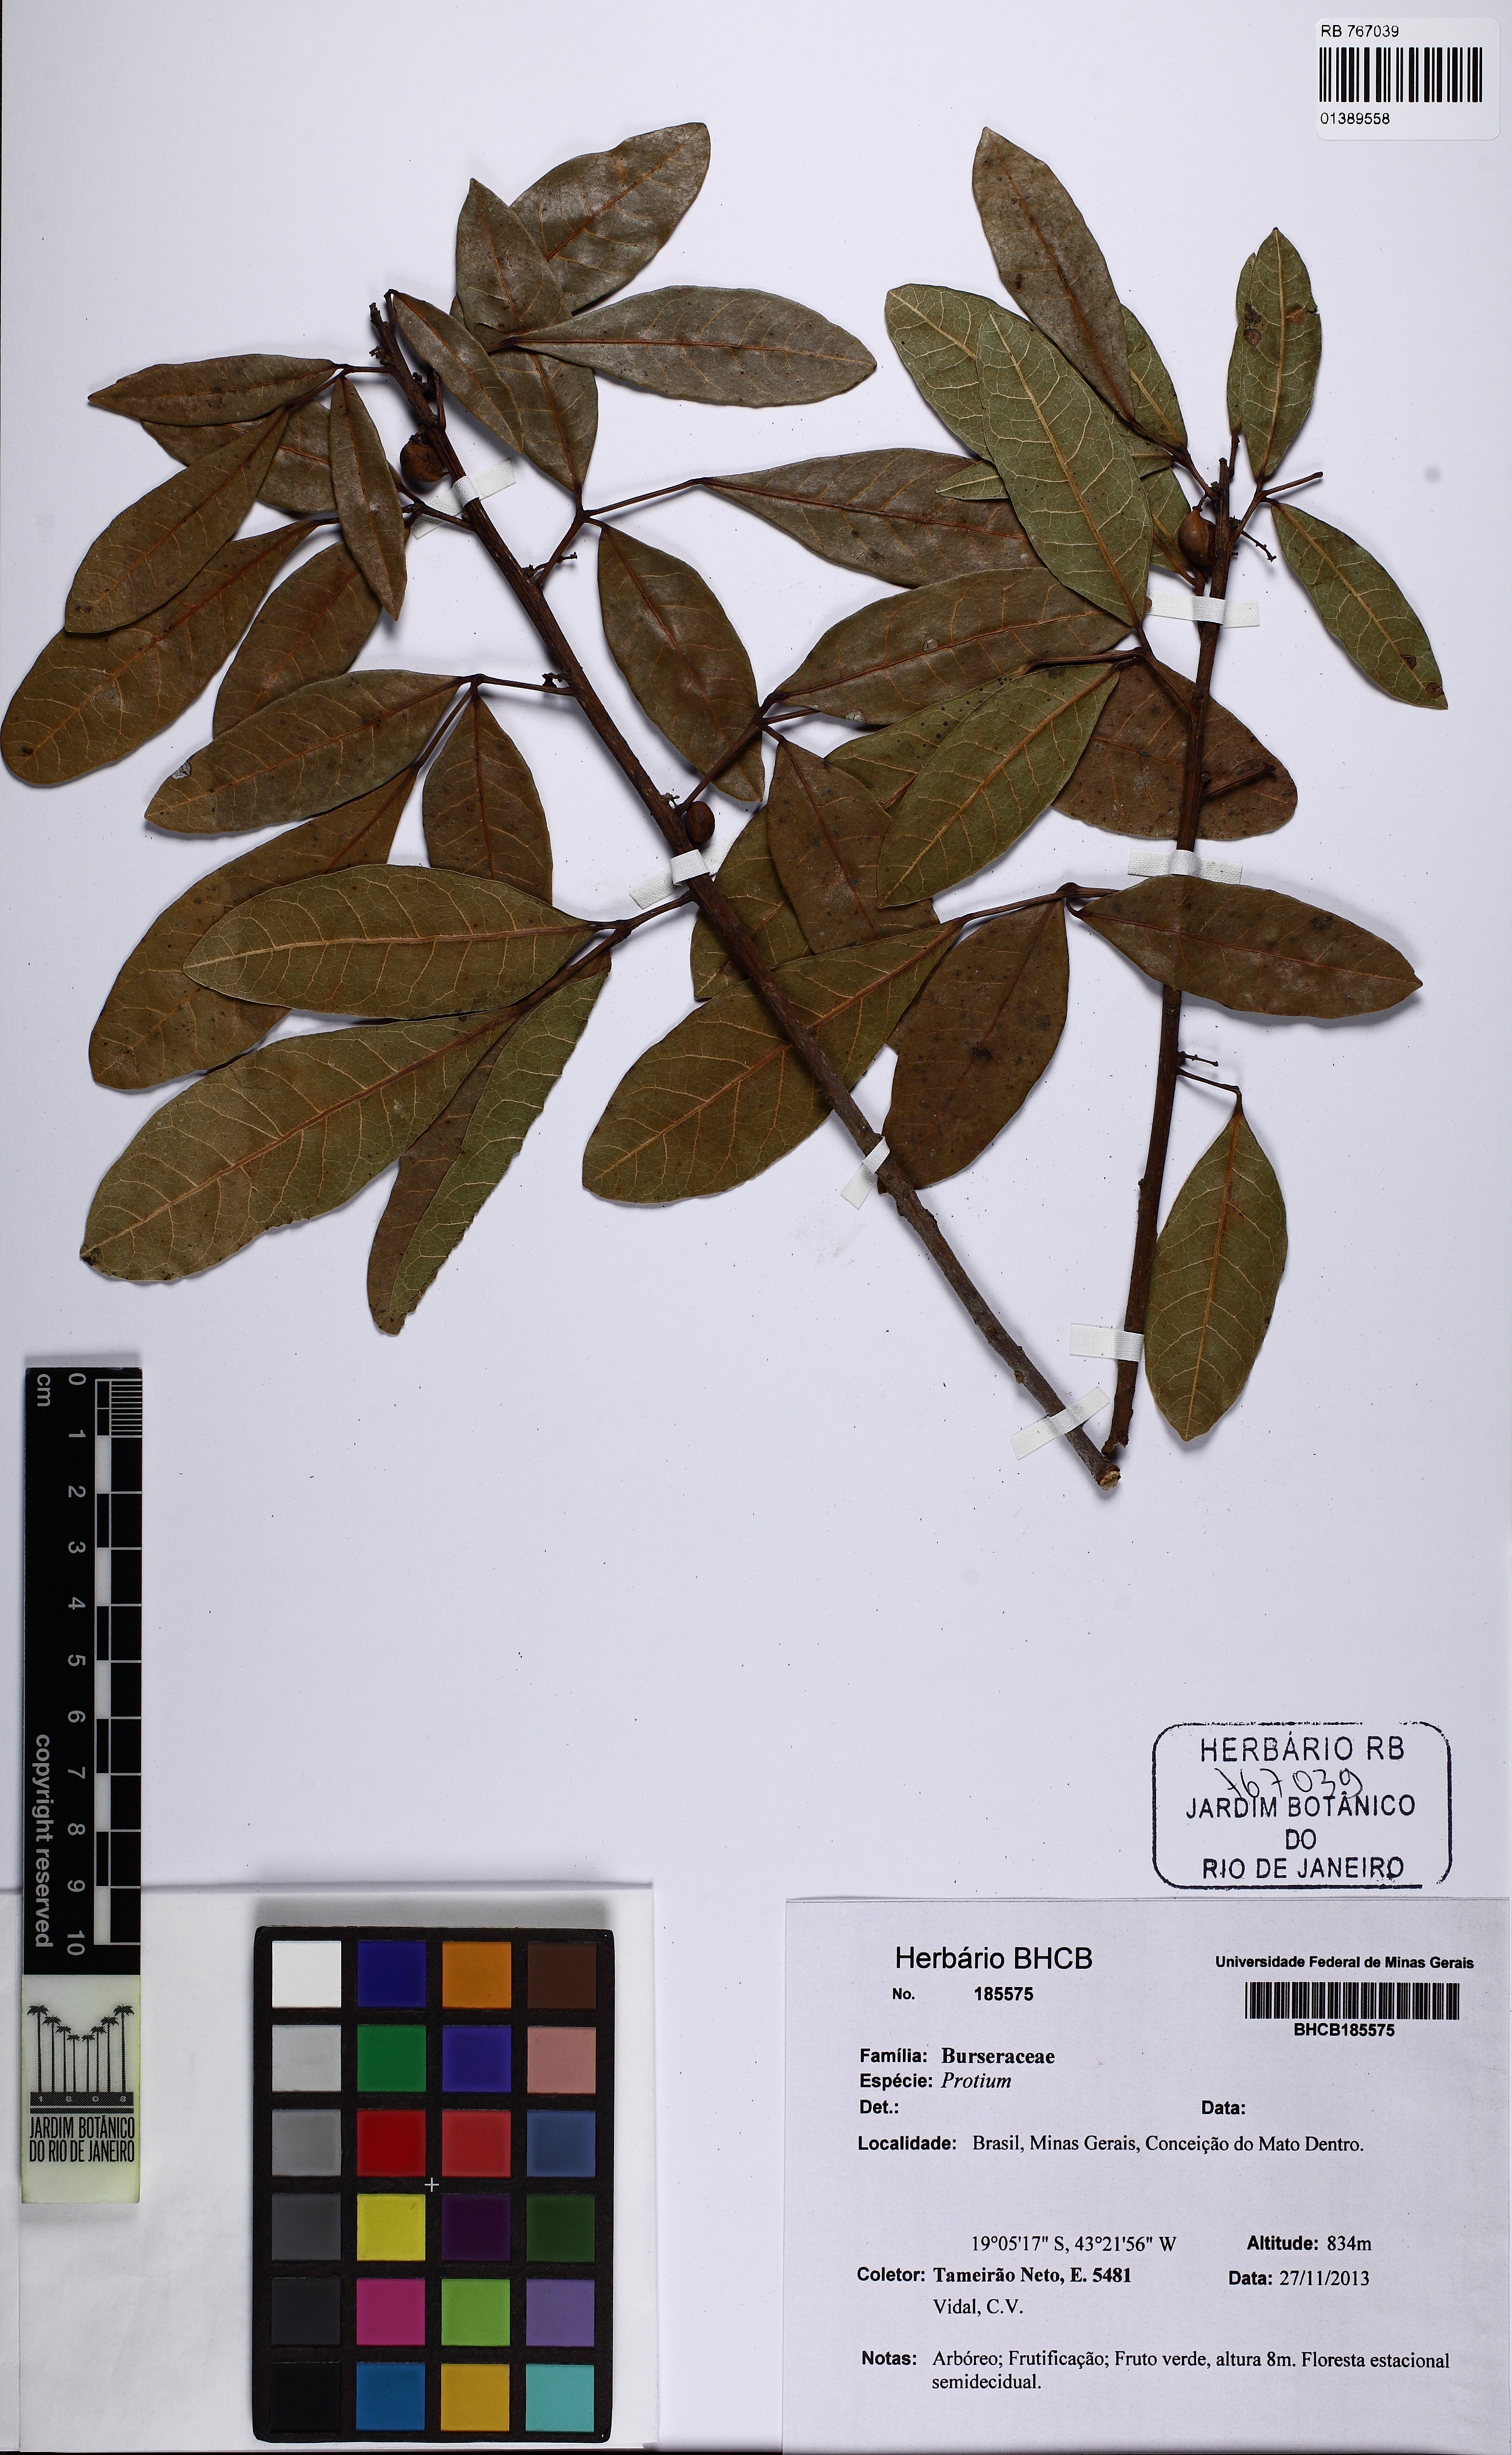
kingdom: Plantae
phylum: Tracheophyta
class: Magnoliopsida
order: Sapindales
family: Burseraceae
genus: Protium
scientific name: Protium brasiliense
